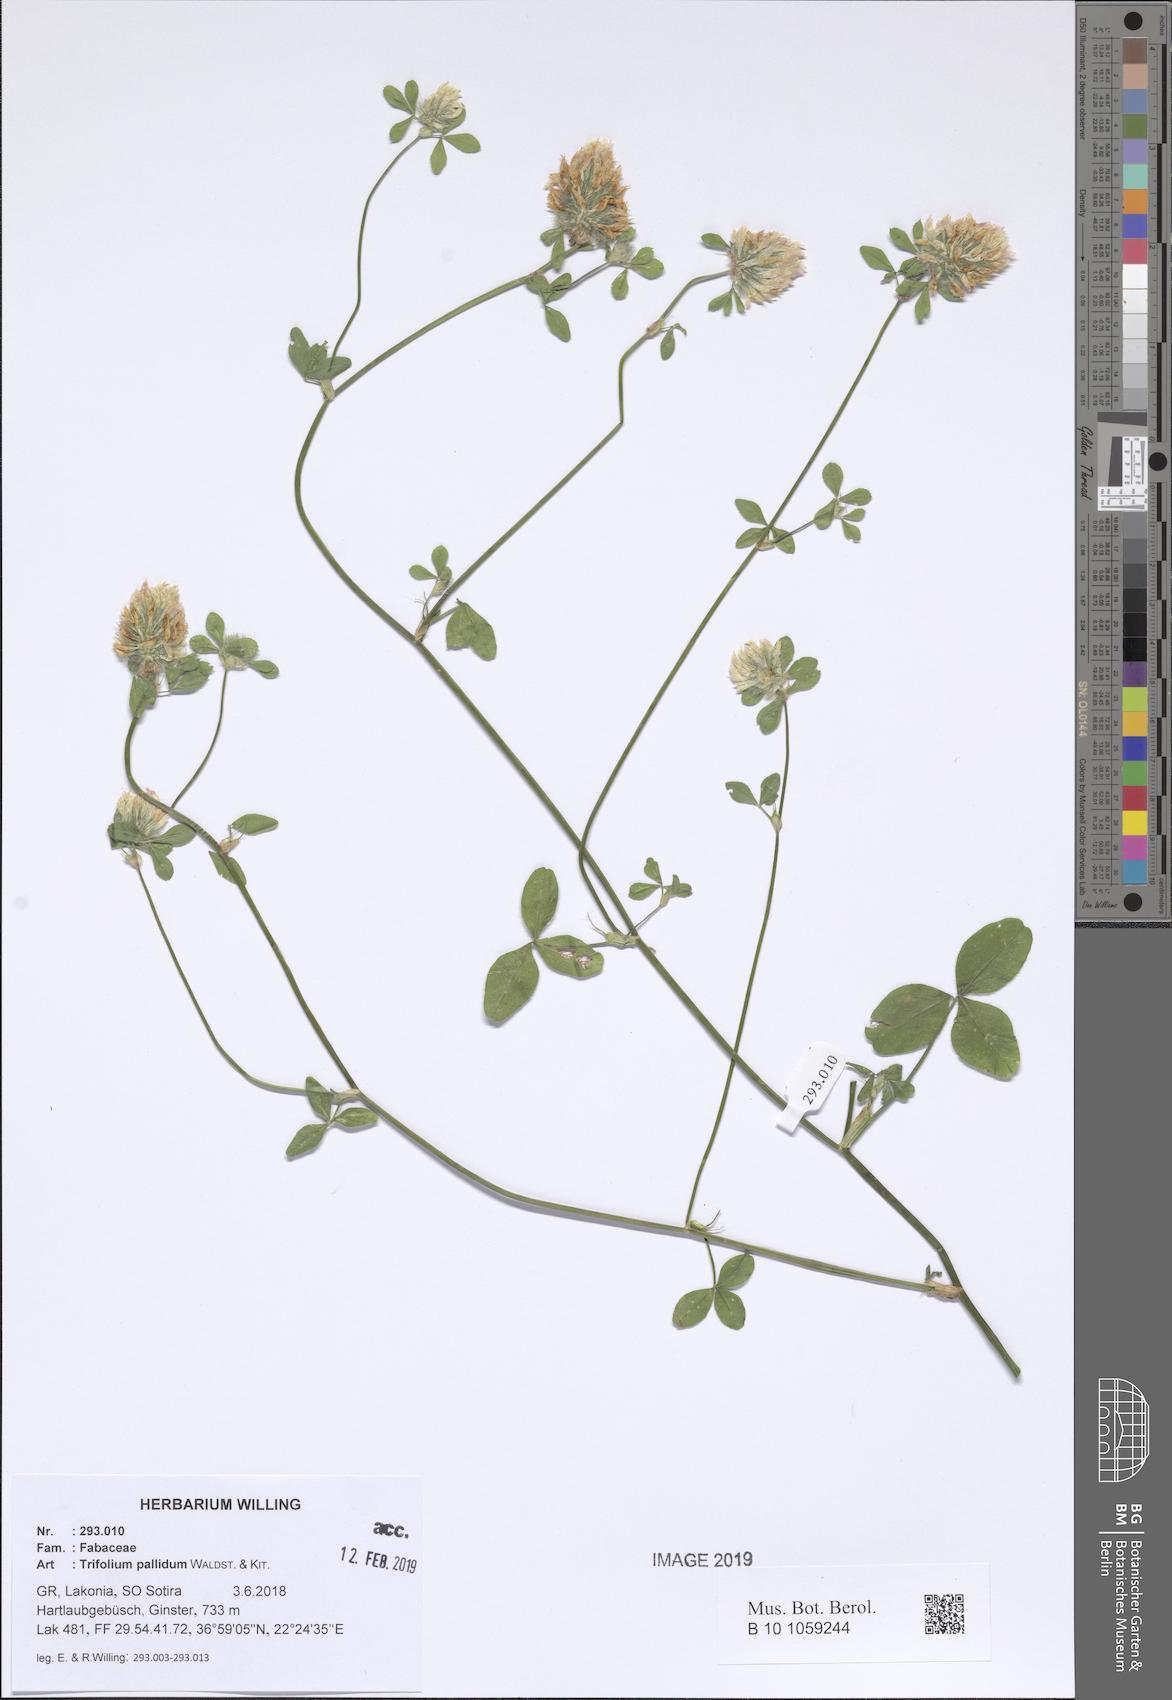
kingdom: Plantae
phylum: Tracheophyta
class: Magnoliopsida
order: Fabales
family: Fabaceae
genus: Trifolium
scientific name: Trifolium pallidum
